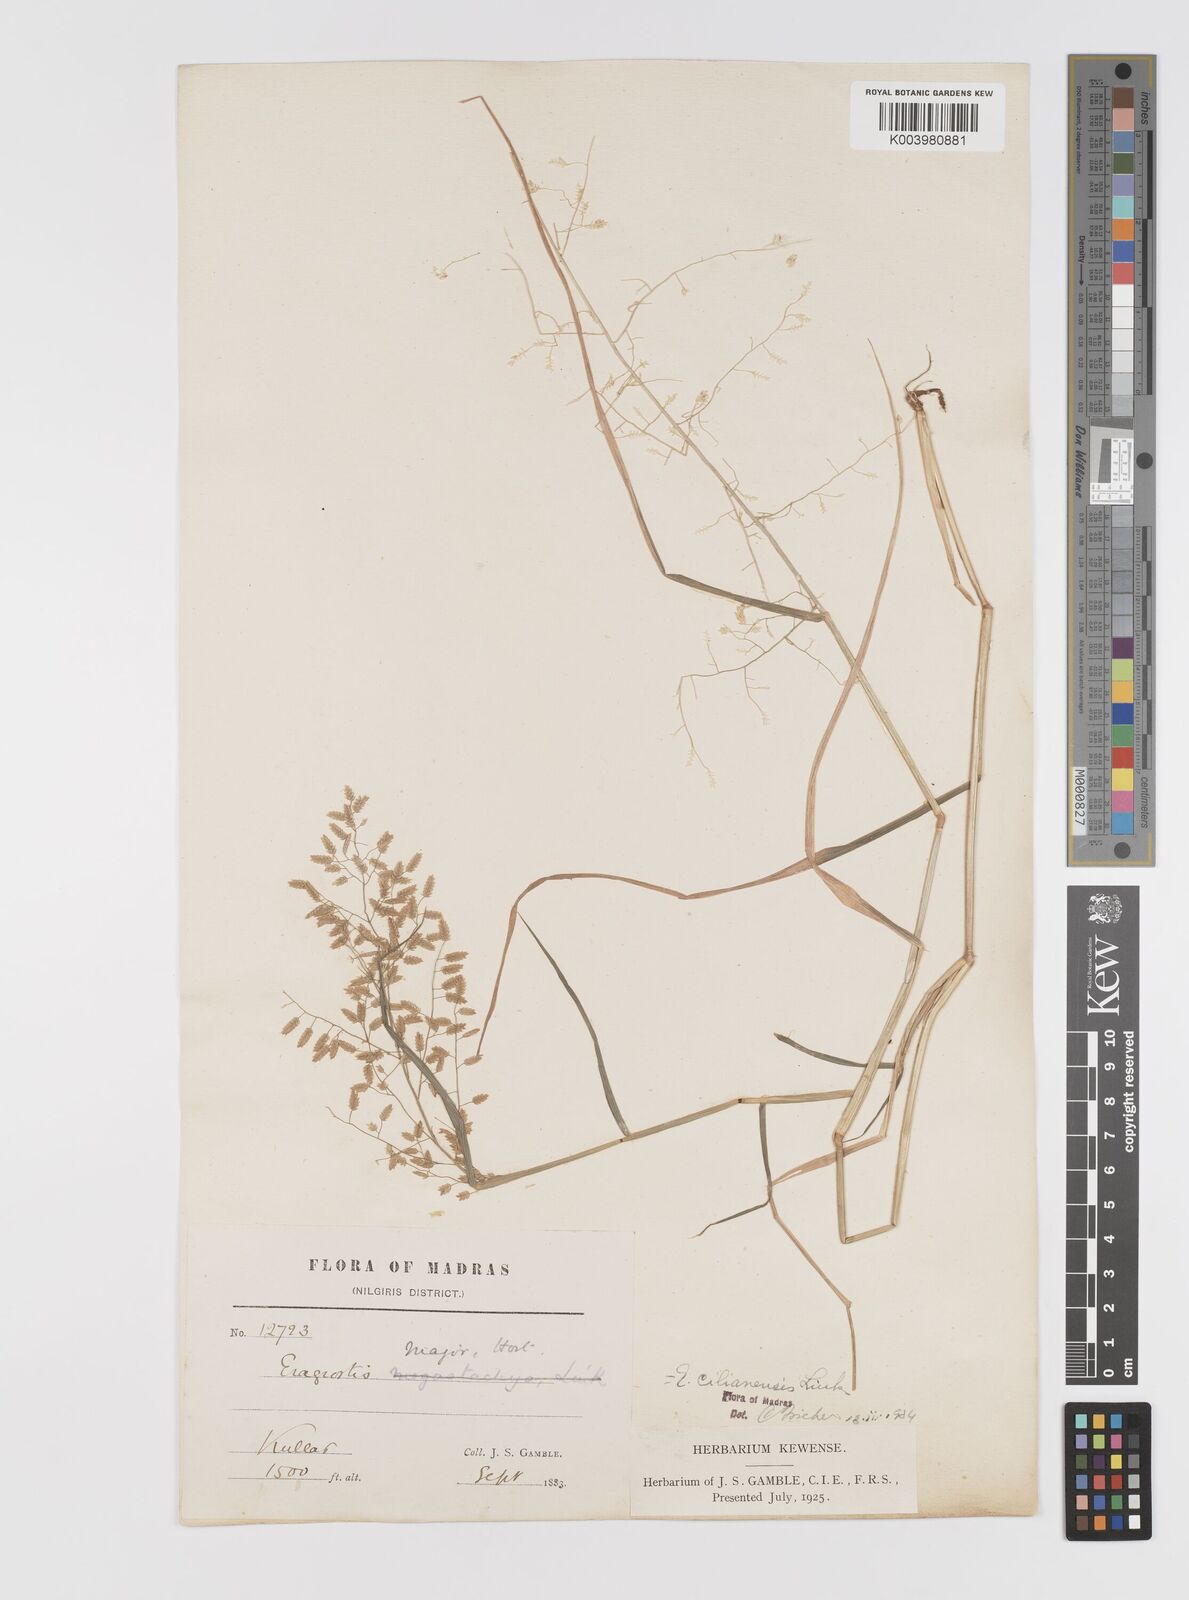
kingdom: Plantae
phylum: Tracheophyta
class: Liliopsida
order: Poales
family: Poaceae
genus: Eragrostis
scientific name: Eragrostis cilianensis
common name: Stinkgrass
